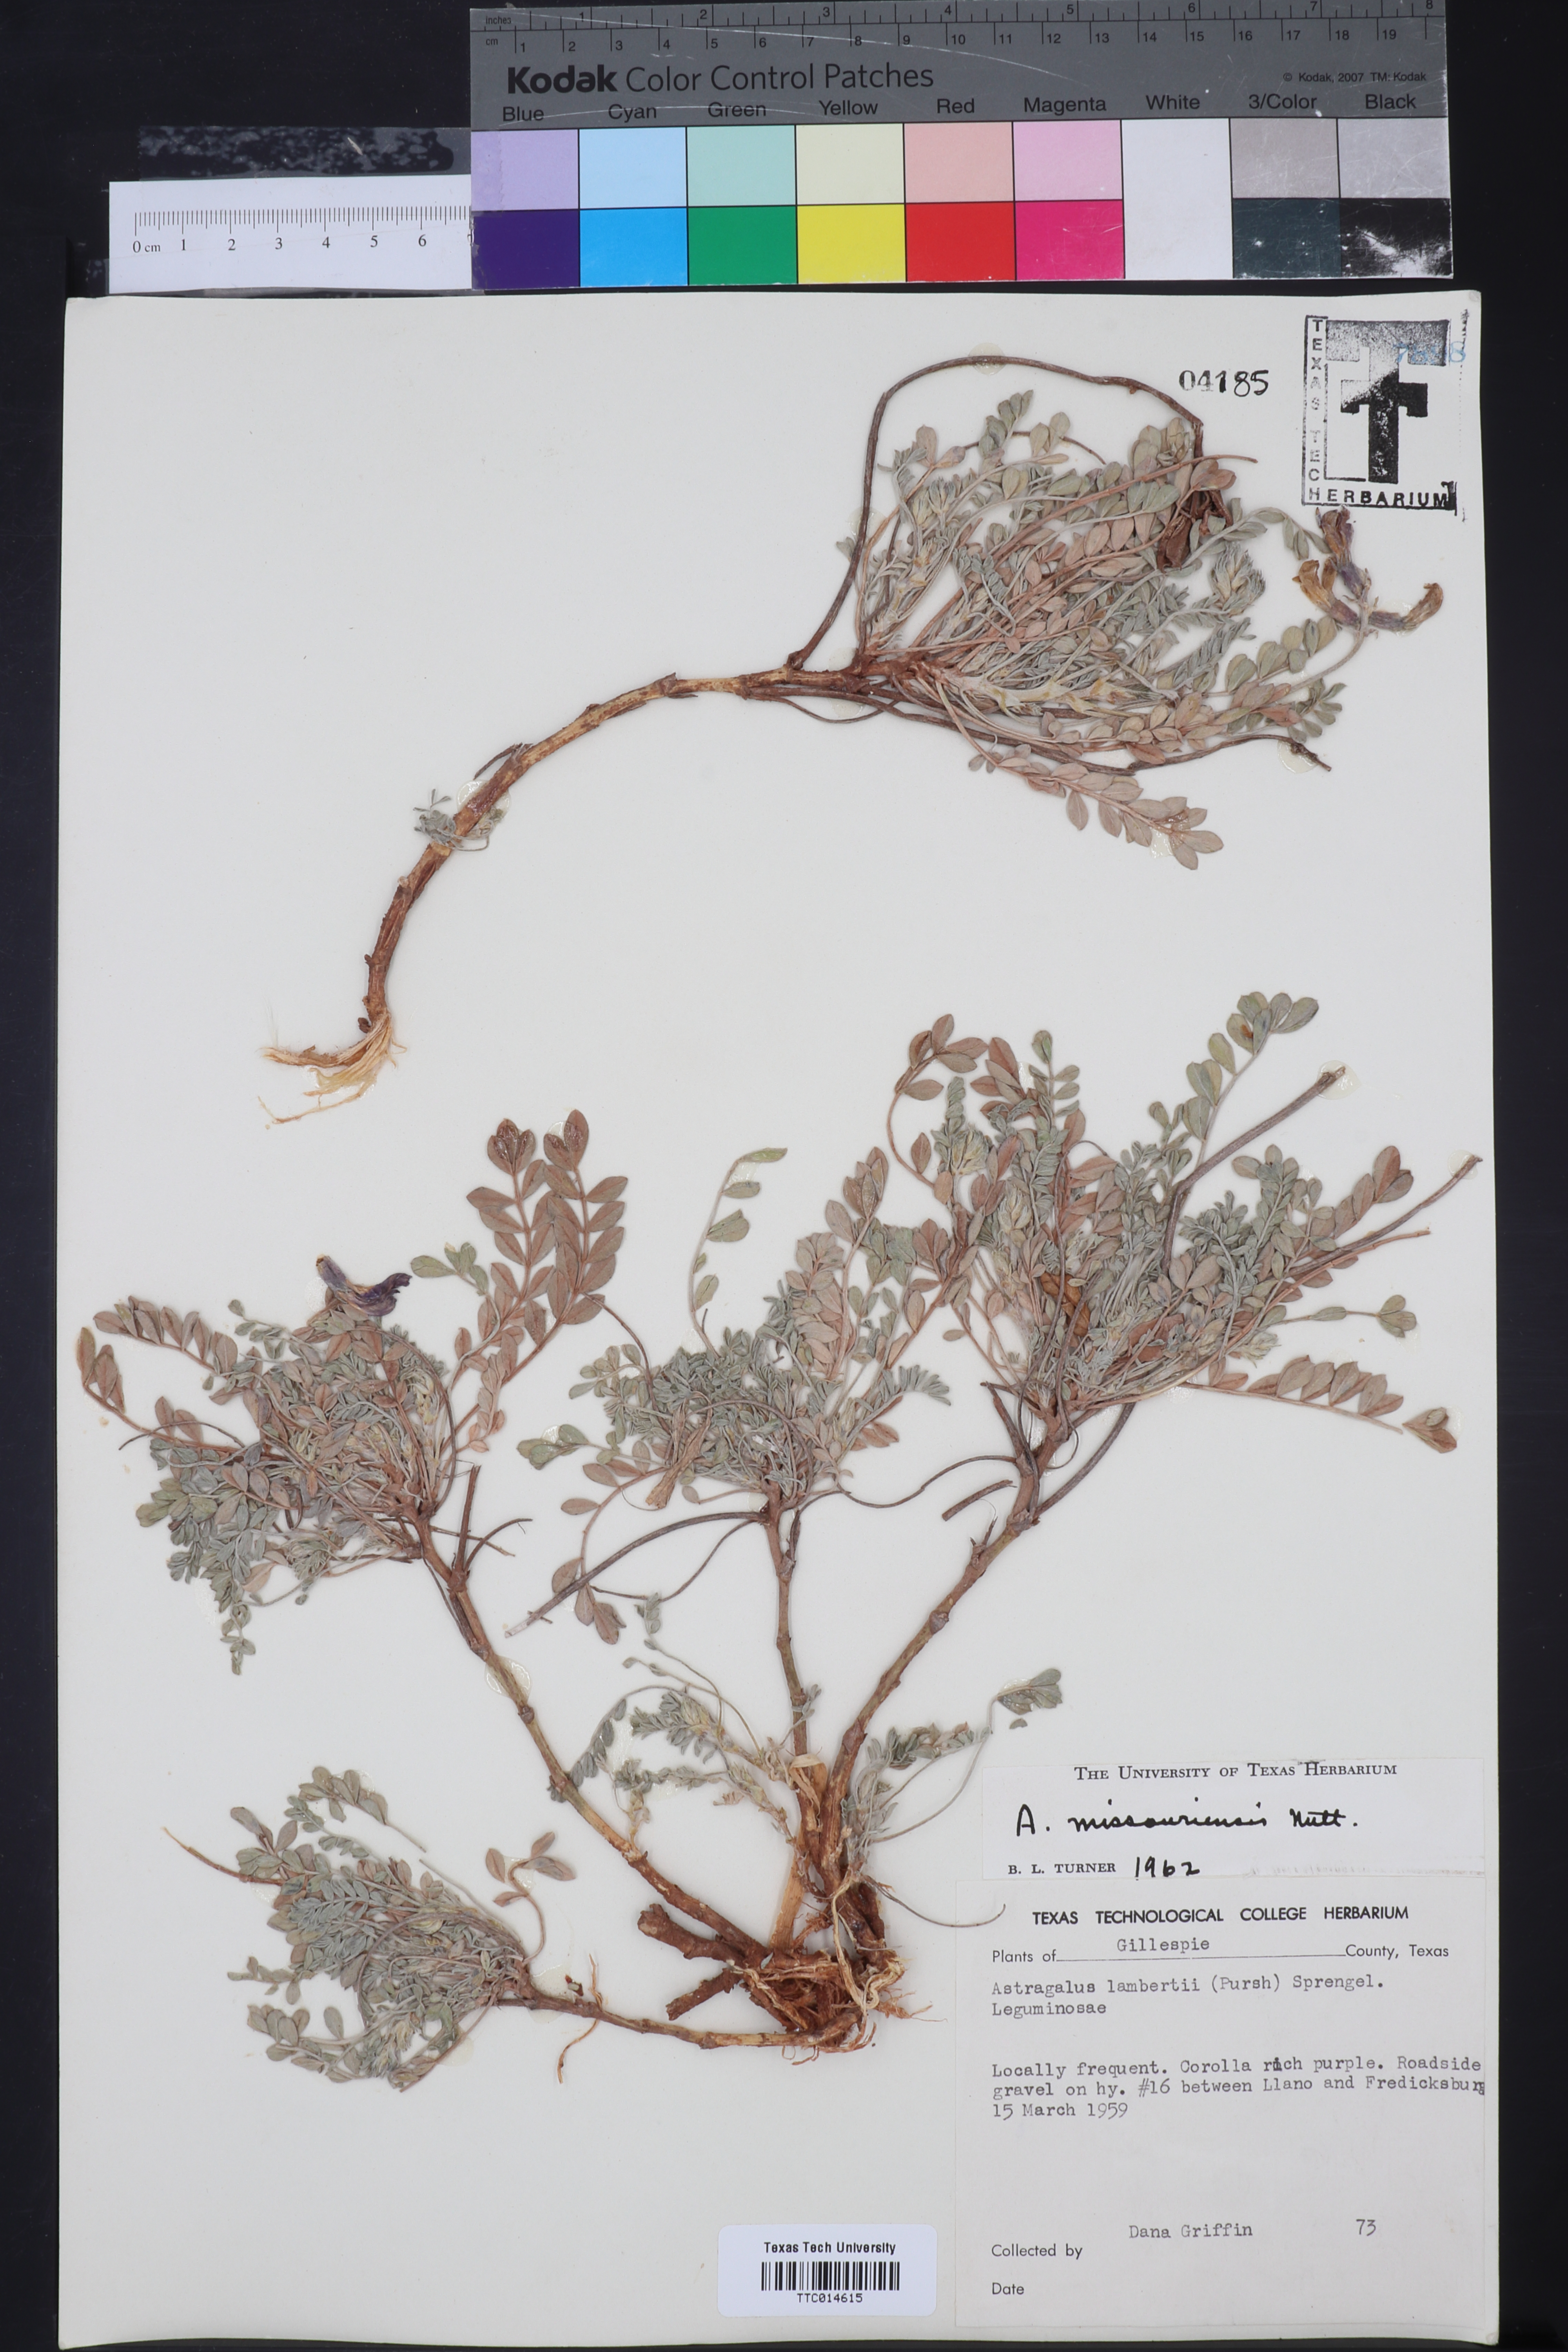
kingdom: Plantae
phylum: Tracheophyta
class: Magnoliopsida
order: Fabales
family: Fabaceae
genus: Astragalus
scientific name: Astragalus missouriensis
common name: Missouri milk-vetch
